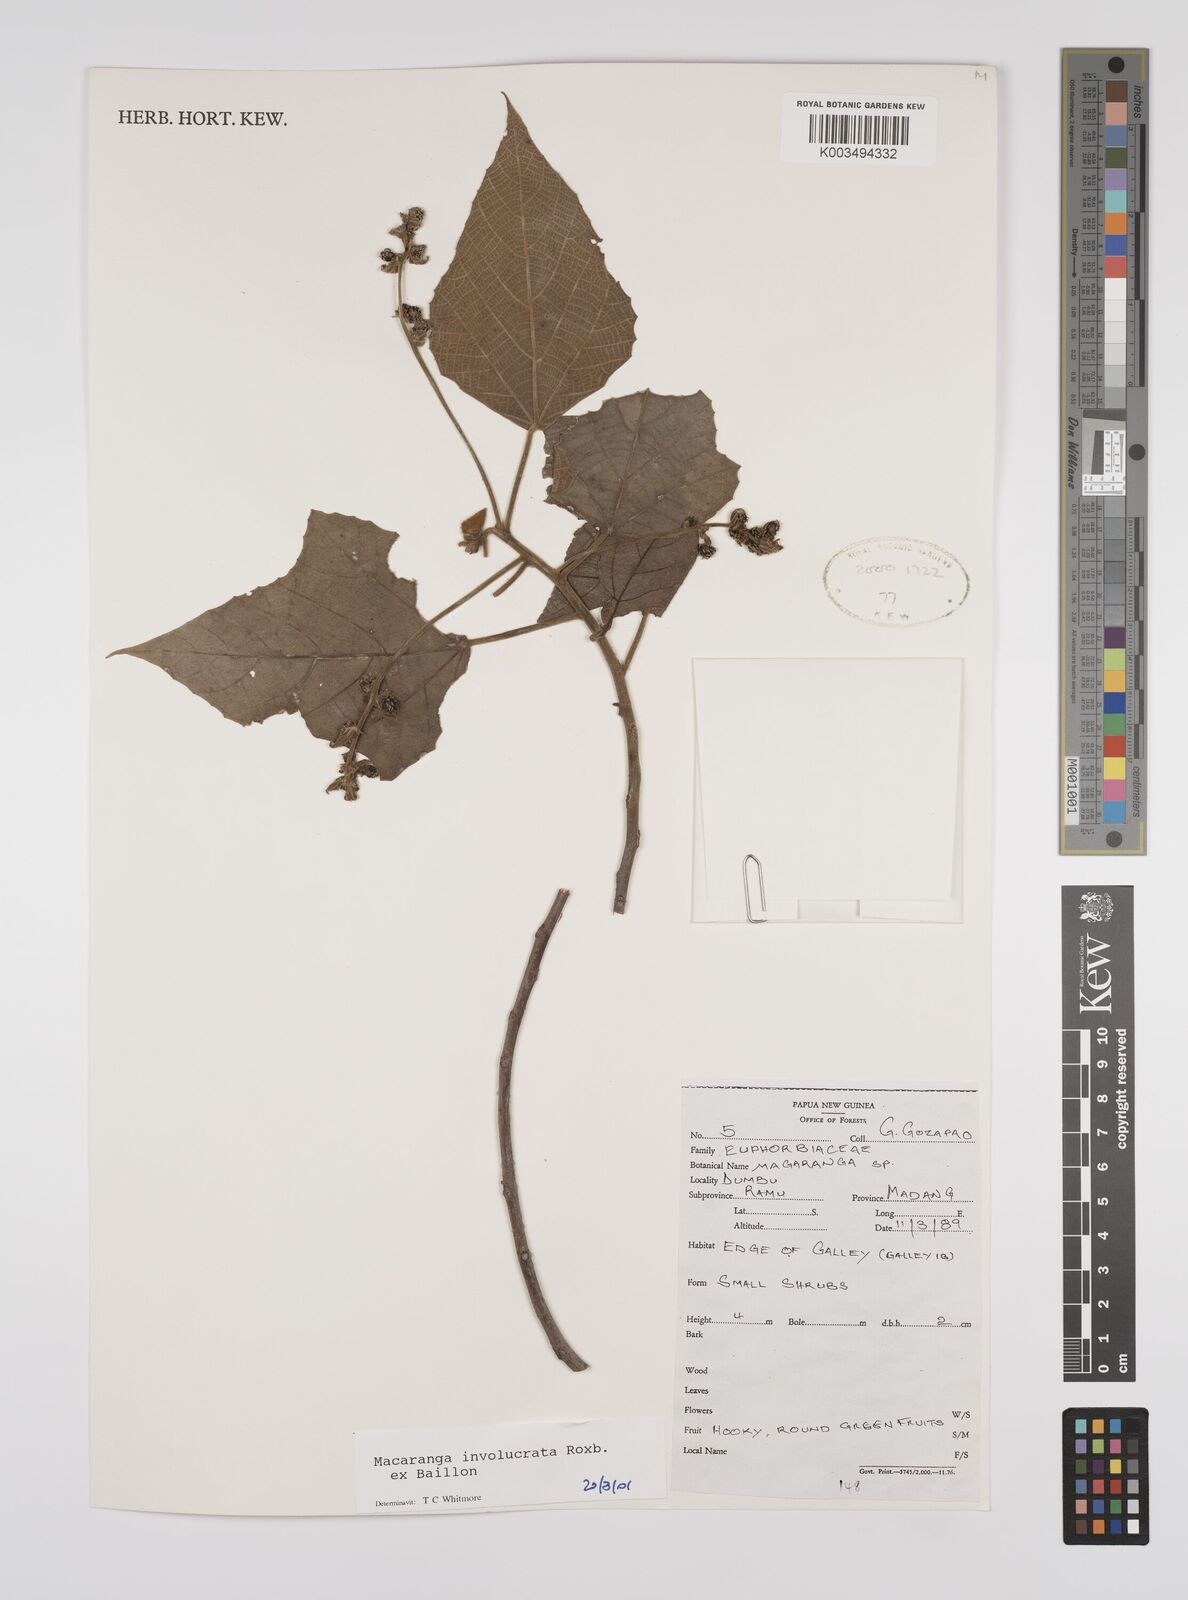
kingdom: Plantae
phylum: Tracheophyta
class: Magnoliopsida
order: Malpighiales
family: Euphorbiaceae
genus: Macaranga
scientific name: Macaranga involucrata
